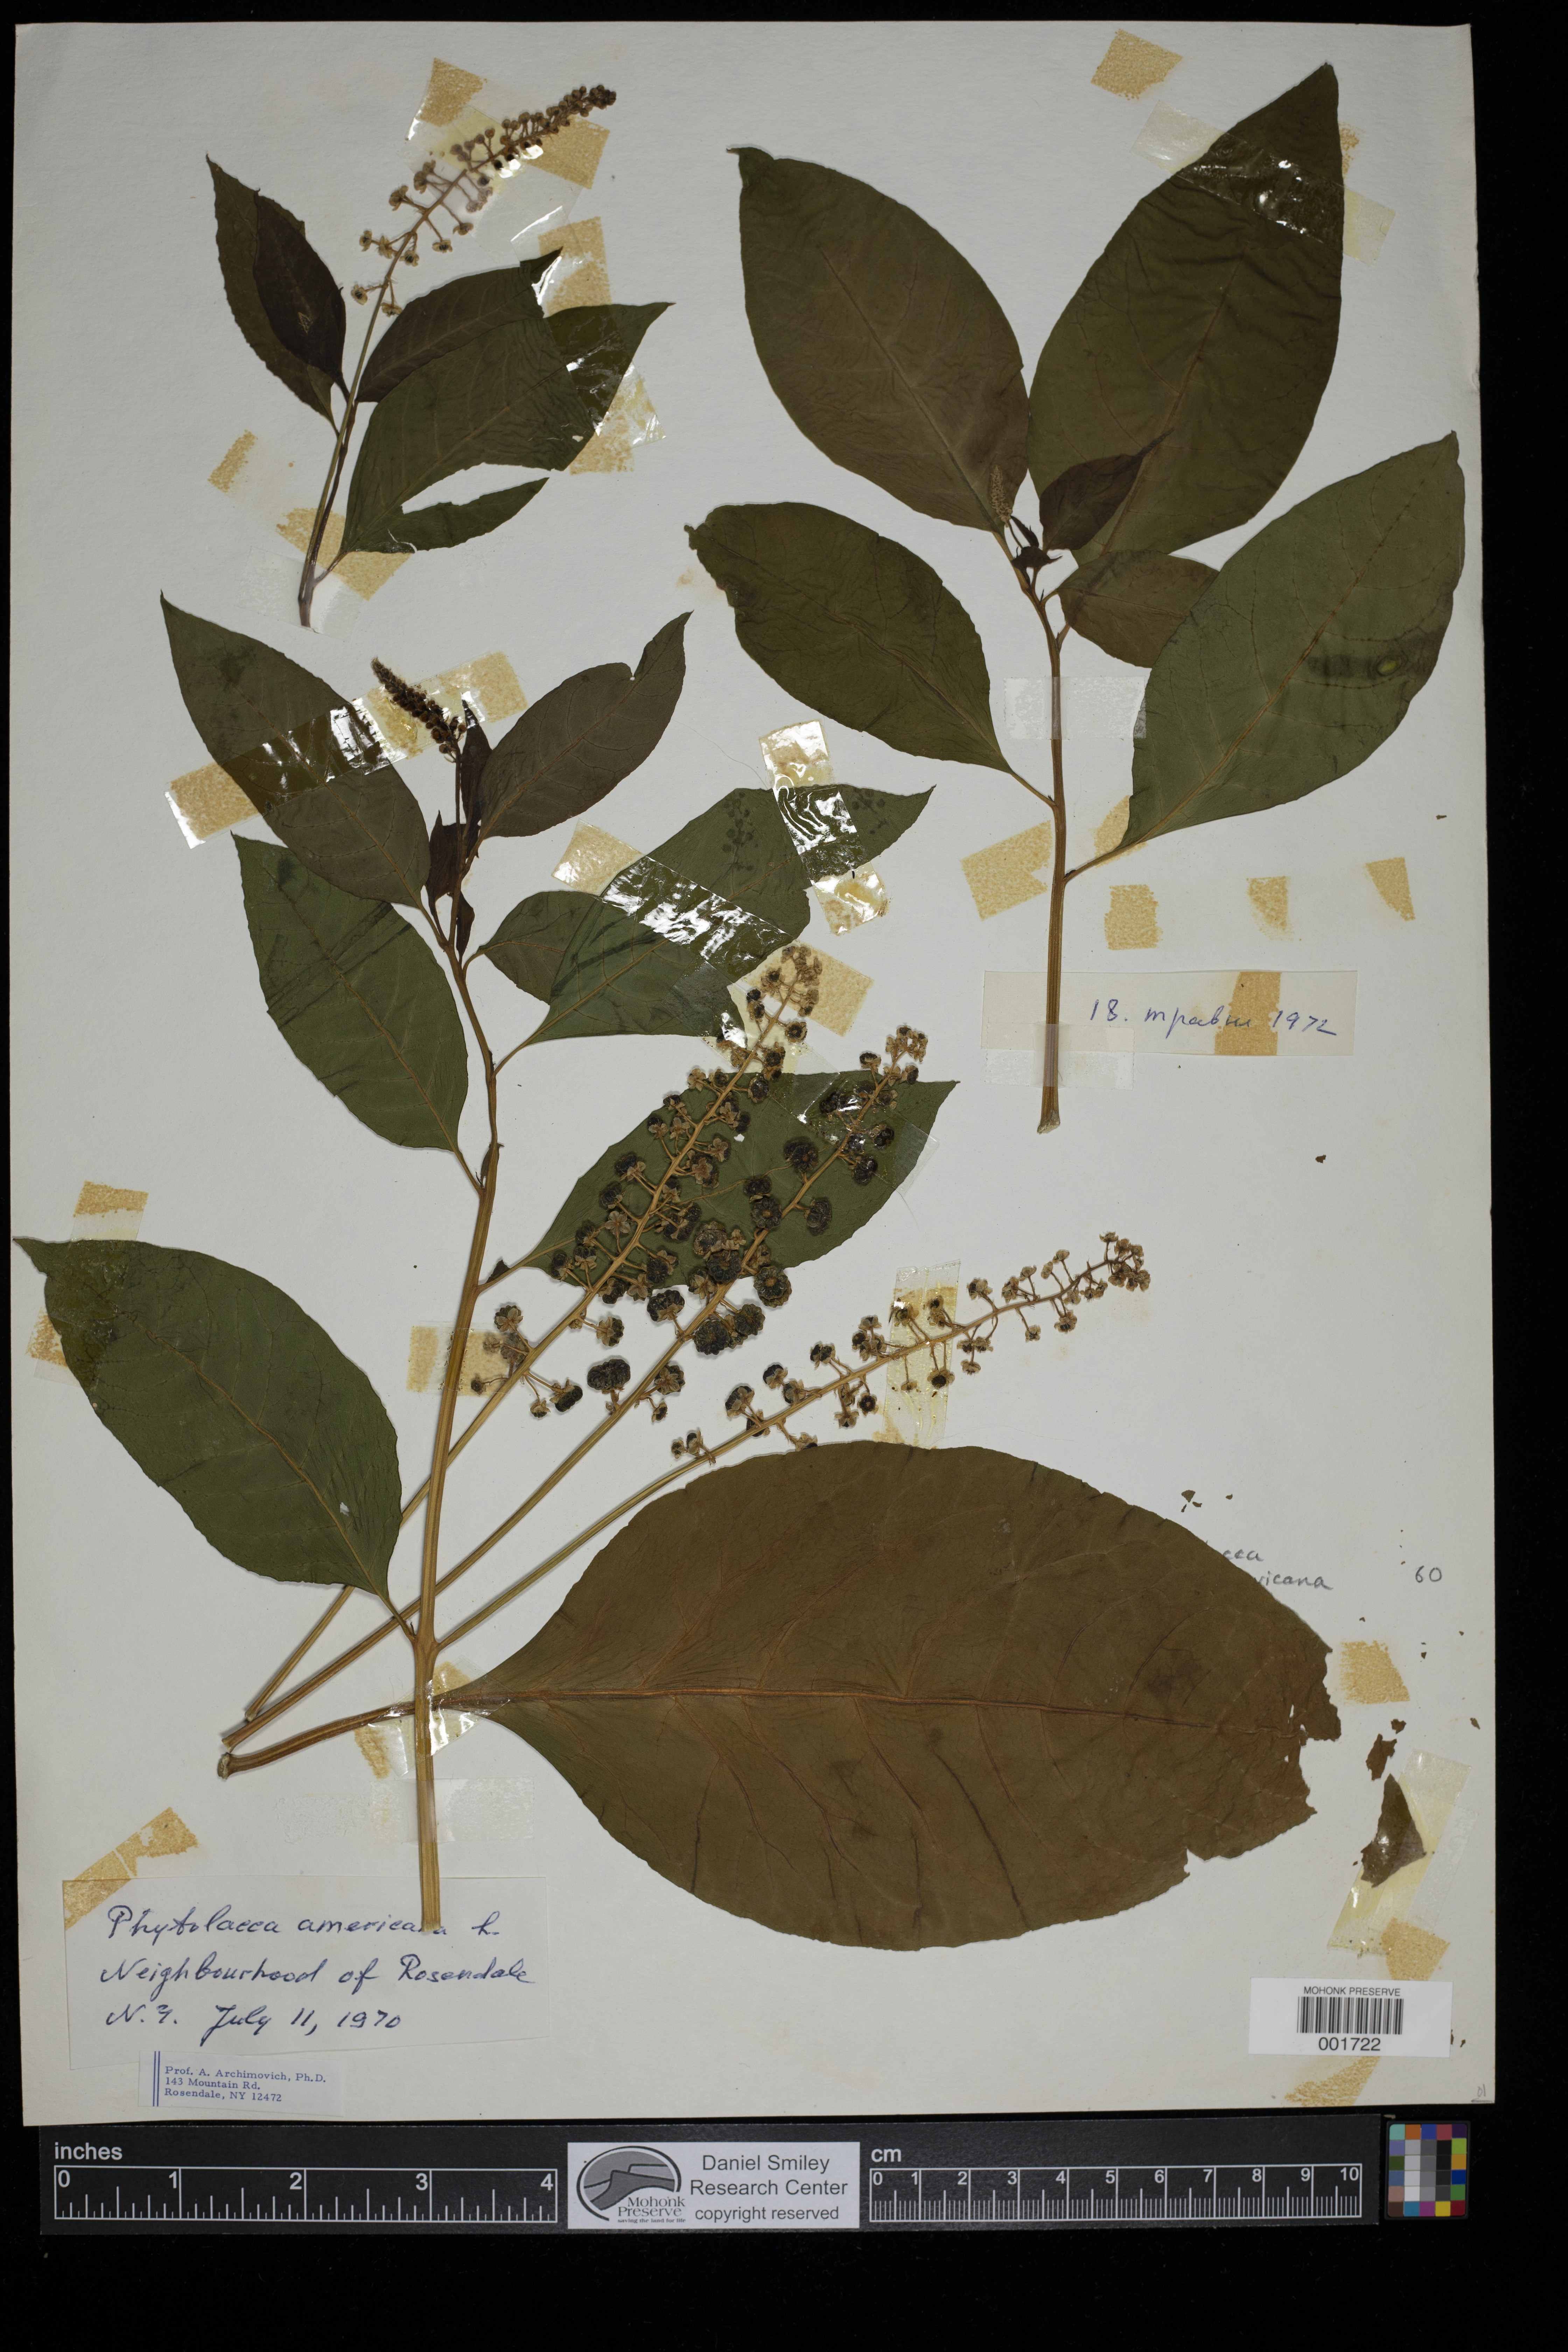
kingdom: Plantae
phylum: Tracheophyta
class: Magnoliopsida
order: Caryophyllales
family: Phytolaccaceae
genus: Phytolacca
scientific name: Phytolacca americana
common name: American pokeweed
